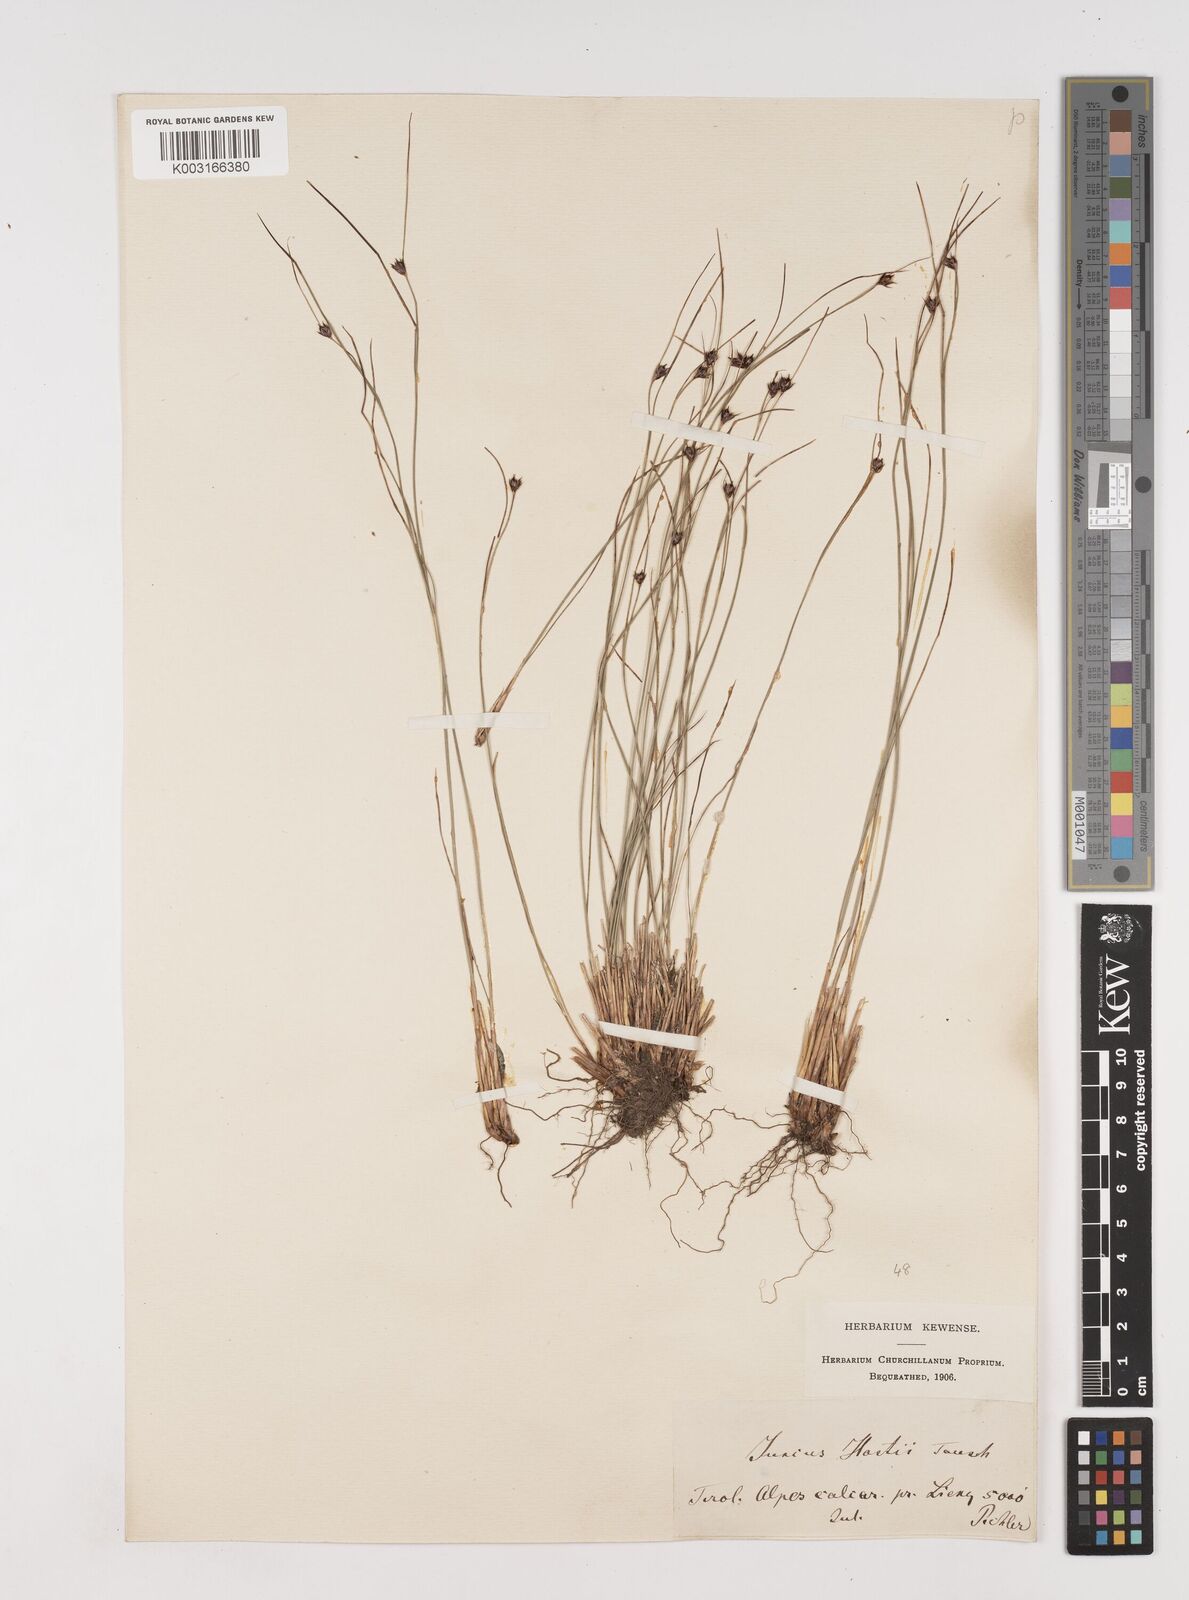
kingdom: Plantae
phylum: Tracheophyta
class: Liliopsida
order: Poales
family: Juncaceae
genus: Oreojuncus
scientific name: Oreojuncus trifidus
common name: Highland rush
